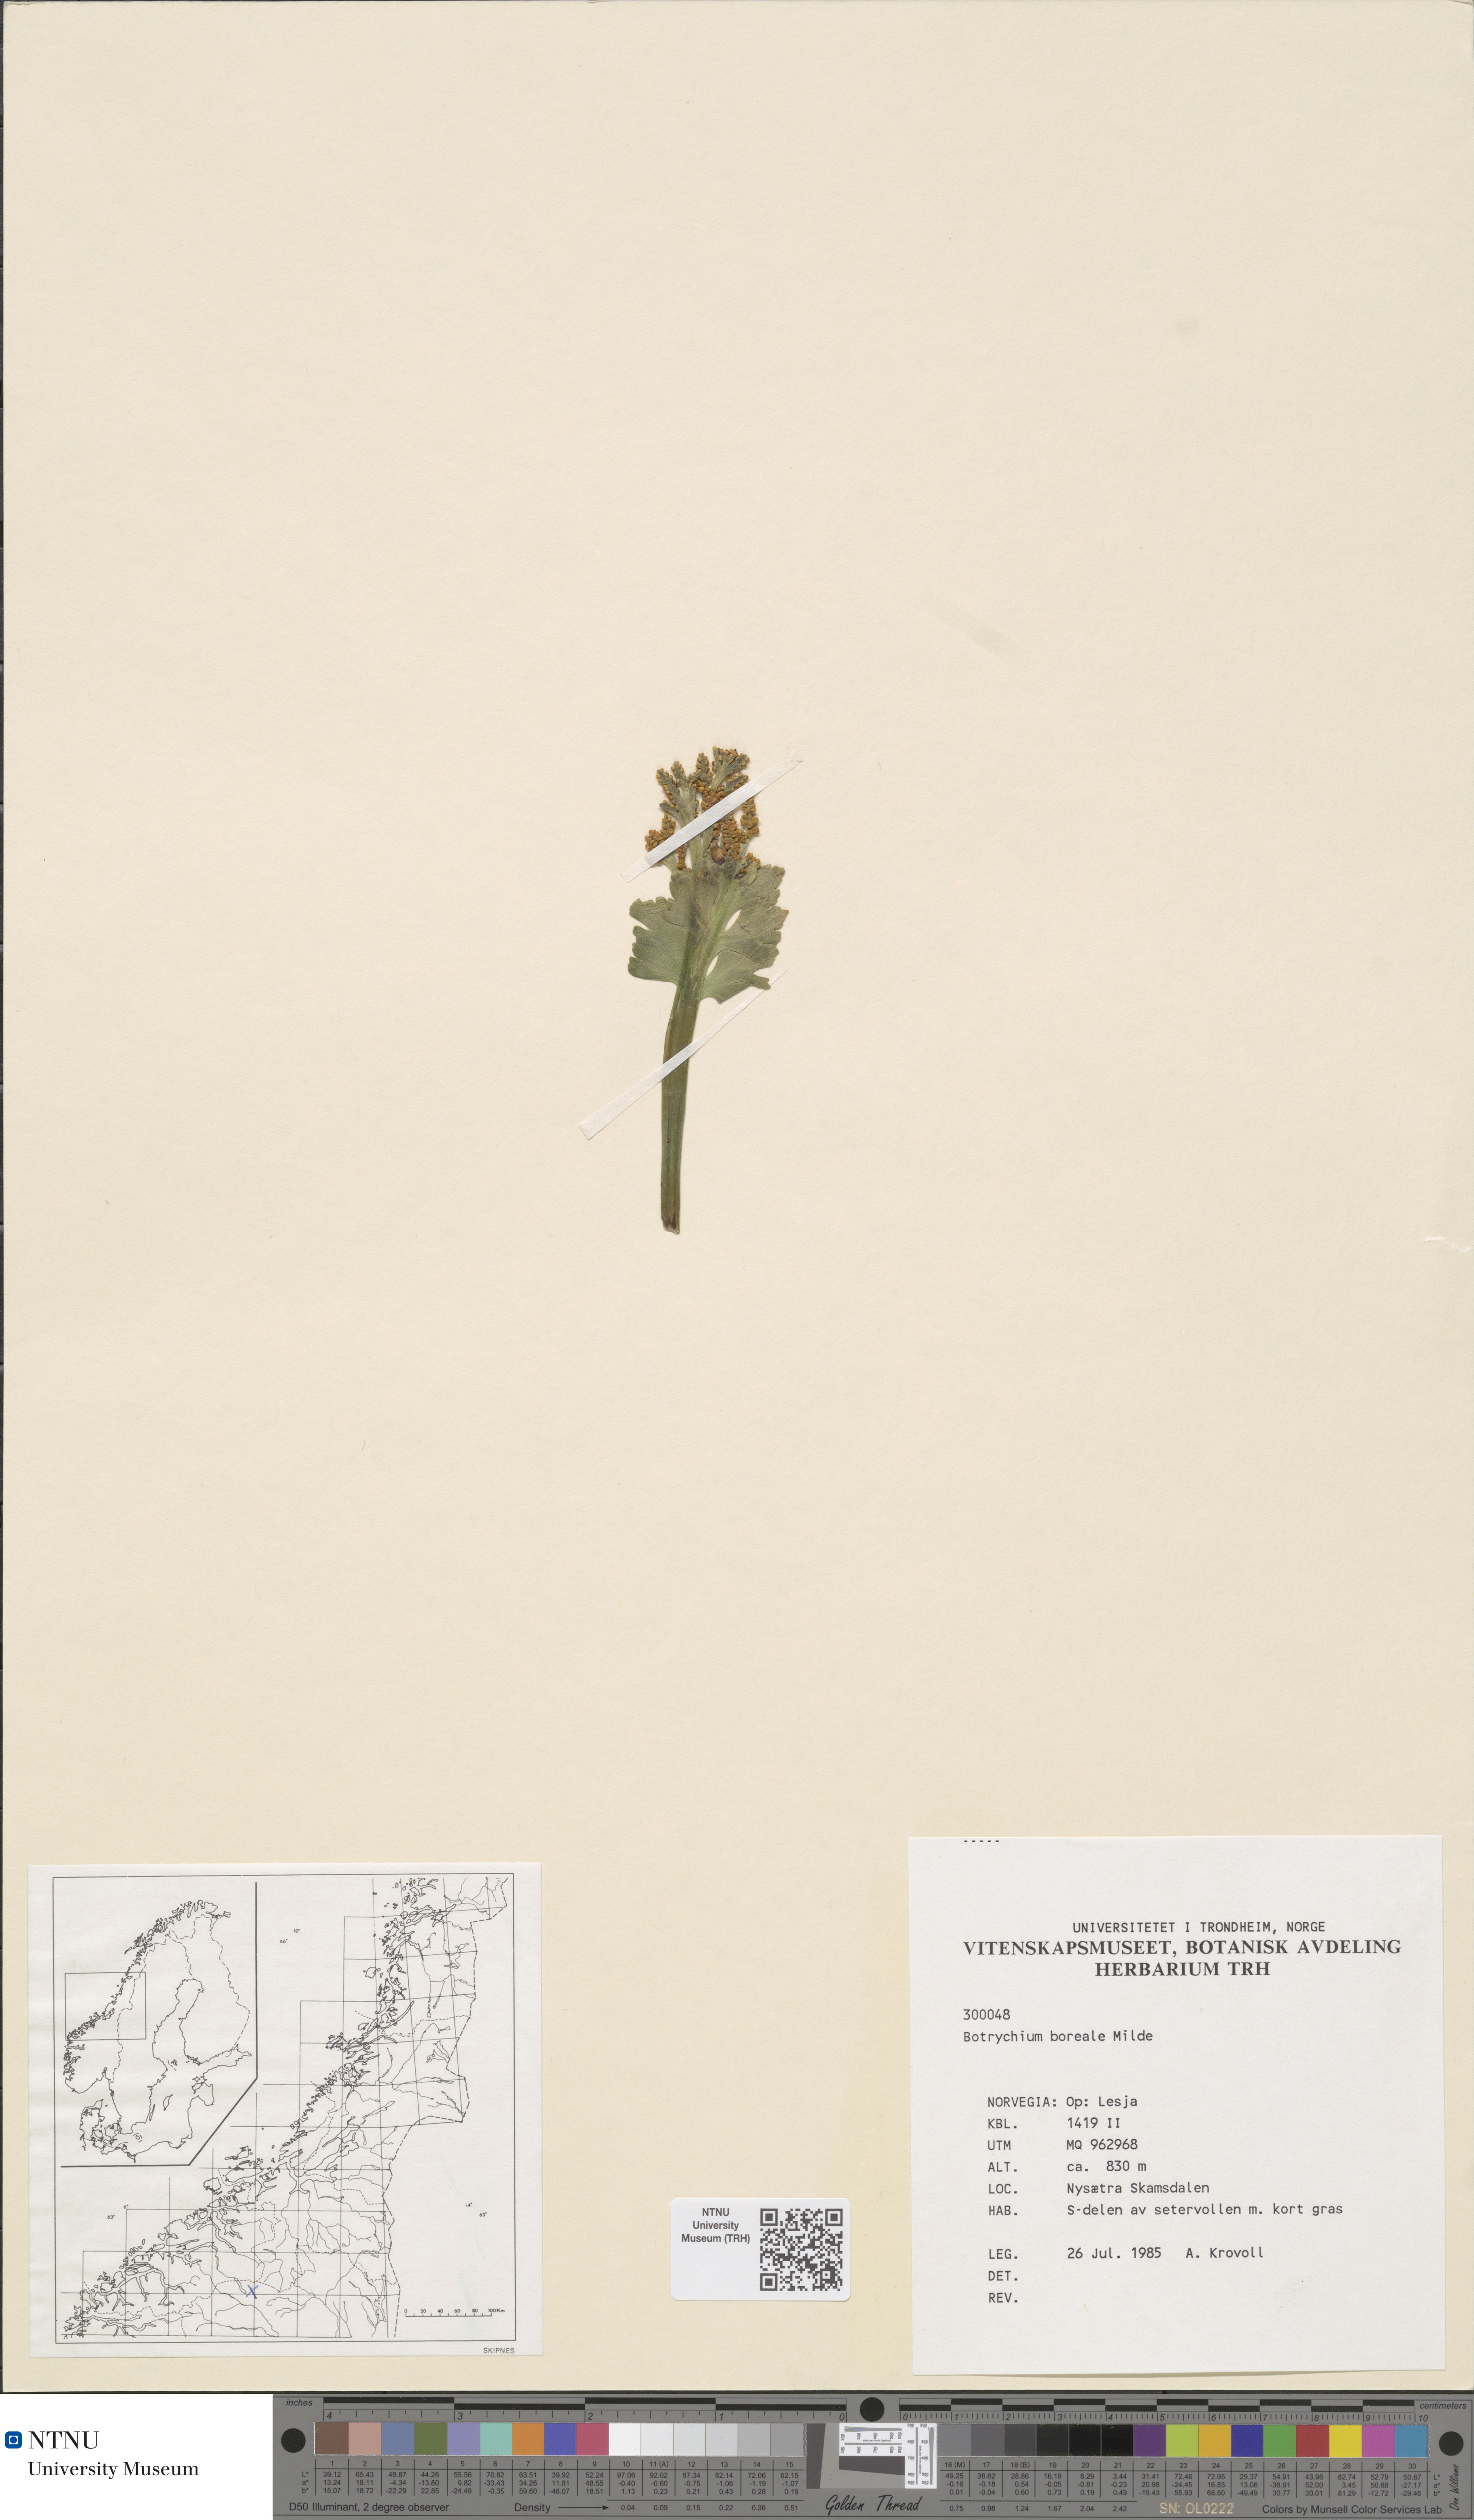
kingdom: Plantae
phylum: Tracheophyta
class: Polypodiopsida
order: Ophioglossales
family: Ophioglossaceae
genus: Botrychium
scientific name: Botrychium boreale
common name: Boreal moonwort
